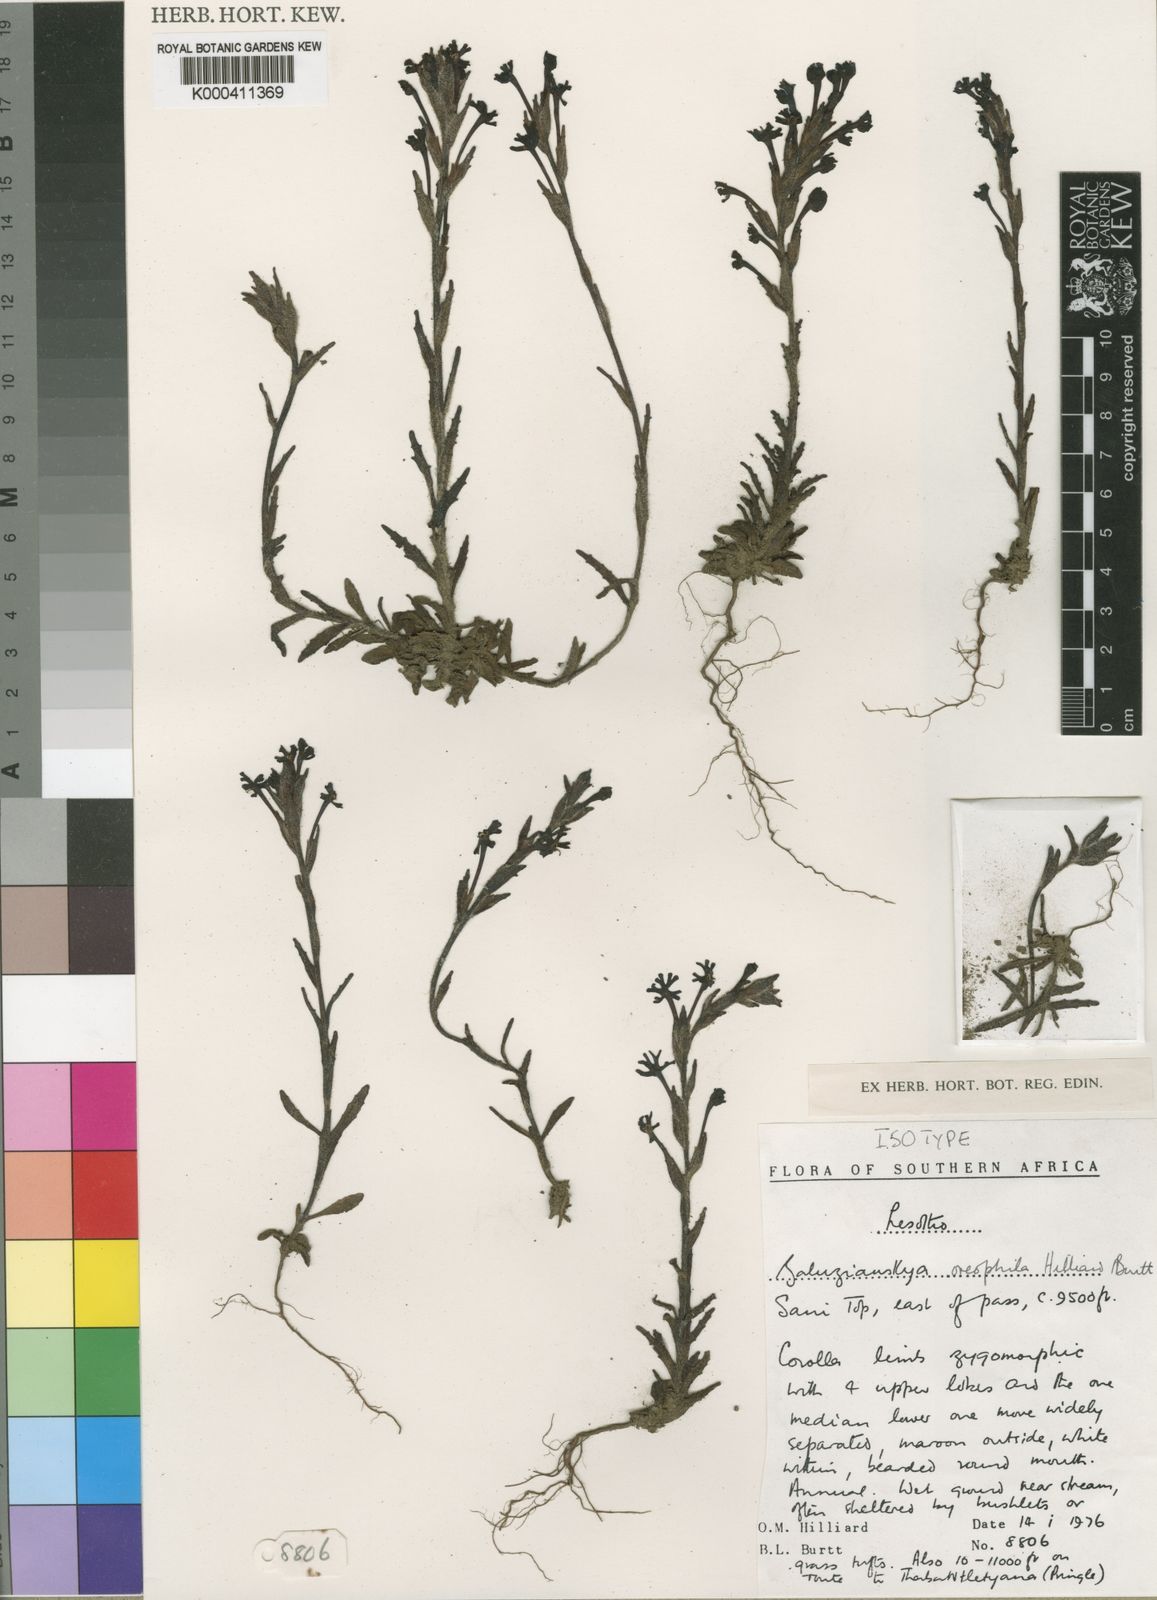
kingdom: Plantae
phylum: Tracheophyta
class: Magnoliopsida
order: Lamiales
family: Scrophulariaceae
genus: Zaluzianskya
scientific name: Zaluzianskya oreophila
